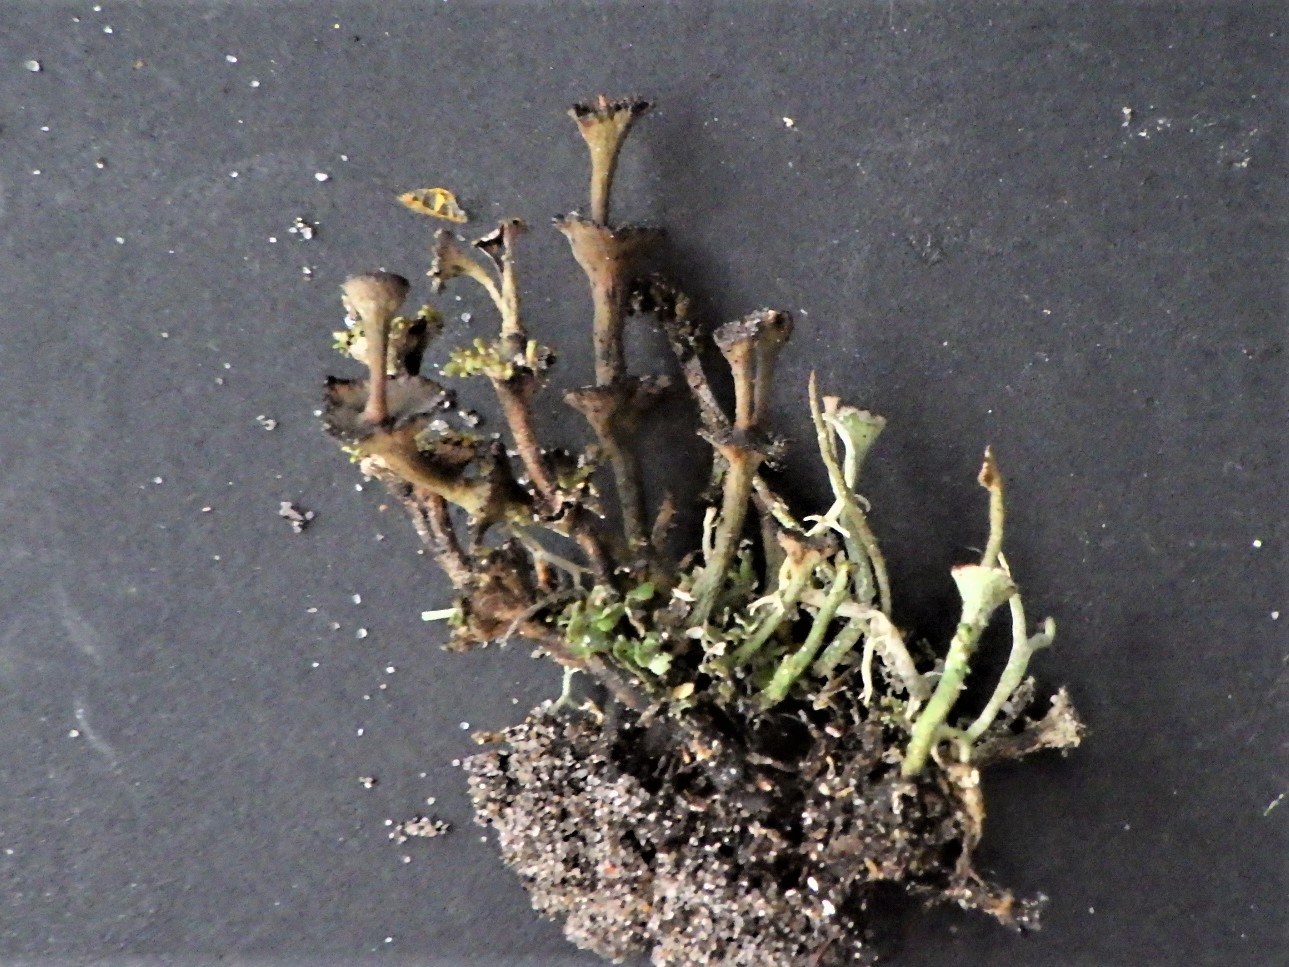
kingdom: Fungi
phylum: Ascomycota
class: Lecanoromycetes
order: Lecanorales
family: Cladoniaceae
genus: Cladonia
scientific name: Cladonia cervicornis
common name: etage-bægerlav
